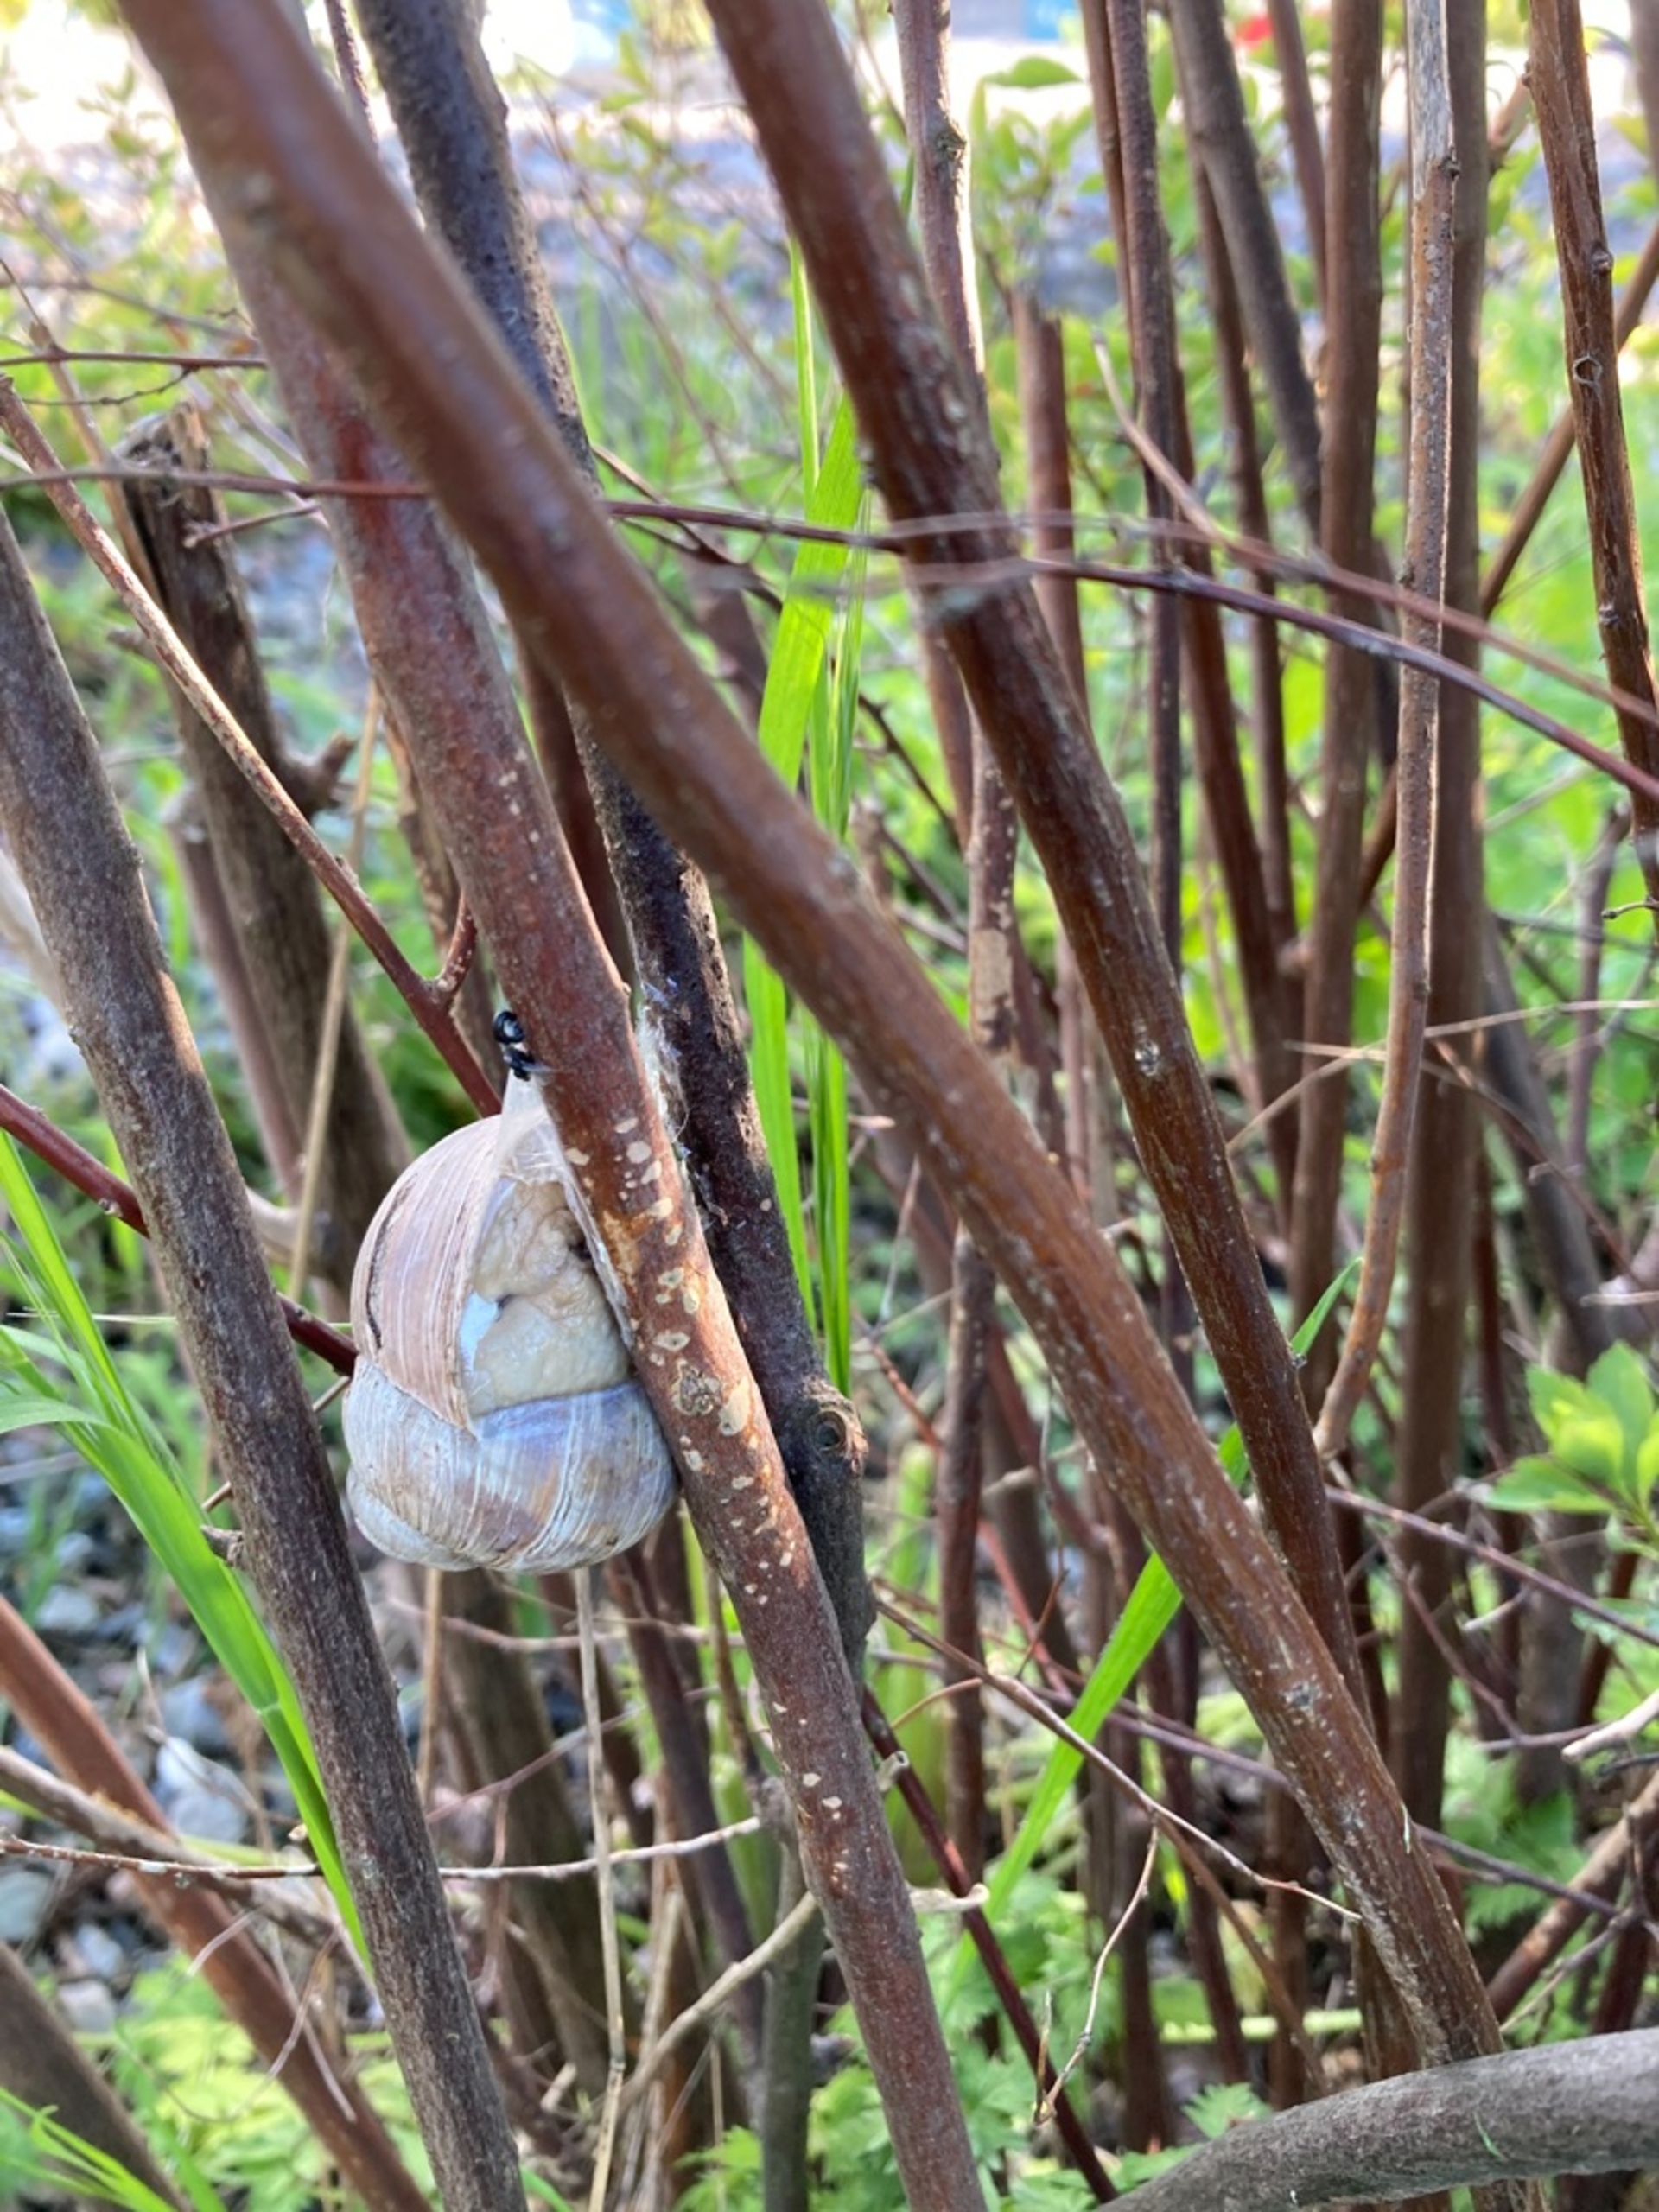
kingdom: Animalia
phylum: Mollusca
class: Gastropoda
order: Stylommatophora
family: Helicidae
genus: Helix
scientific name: Helix pomatia
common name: Vinbjergsnegl
